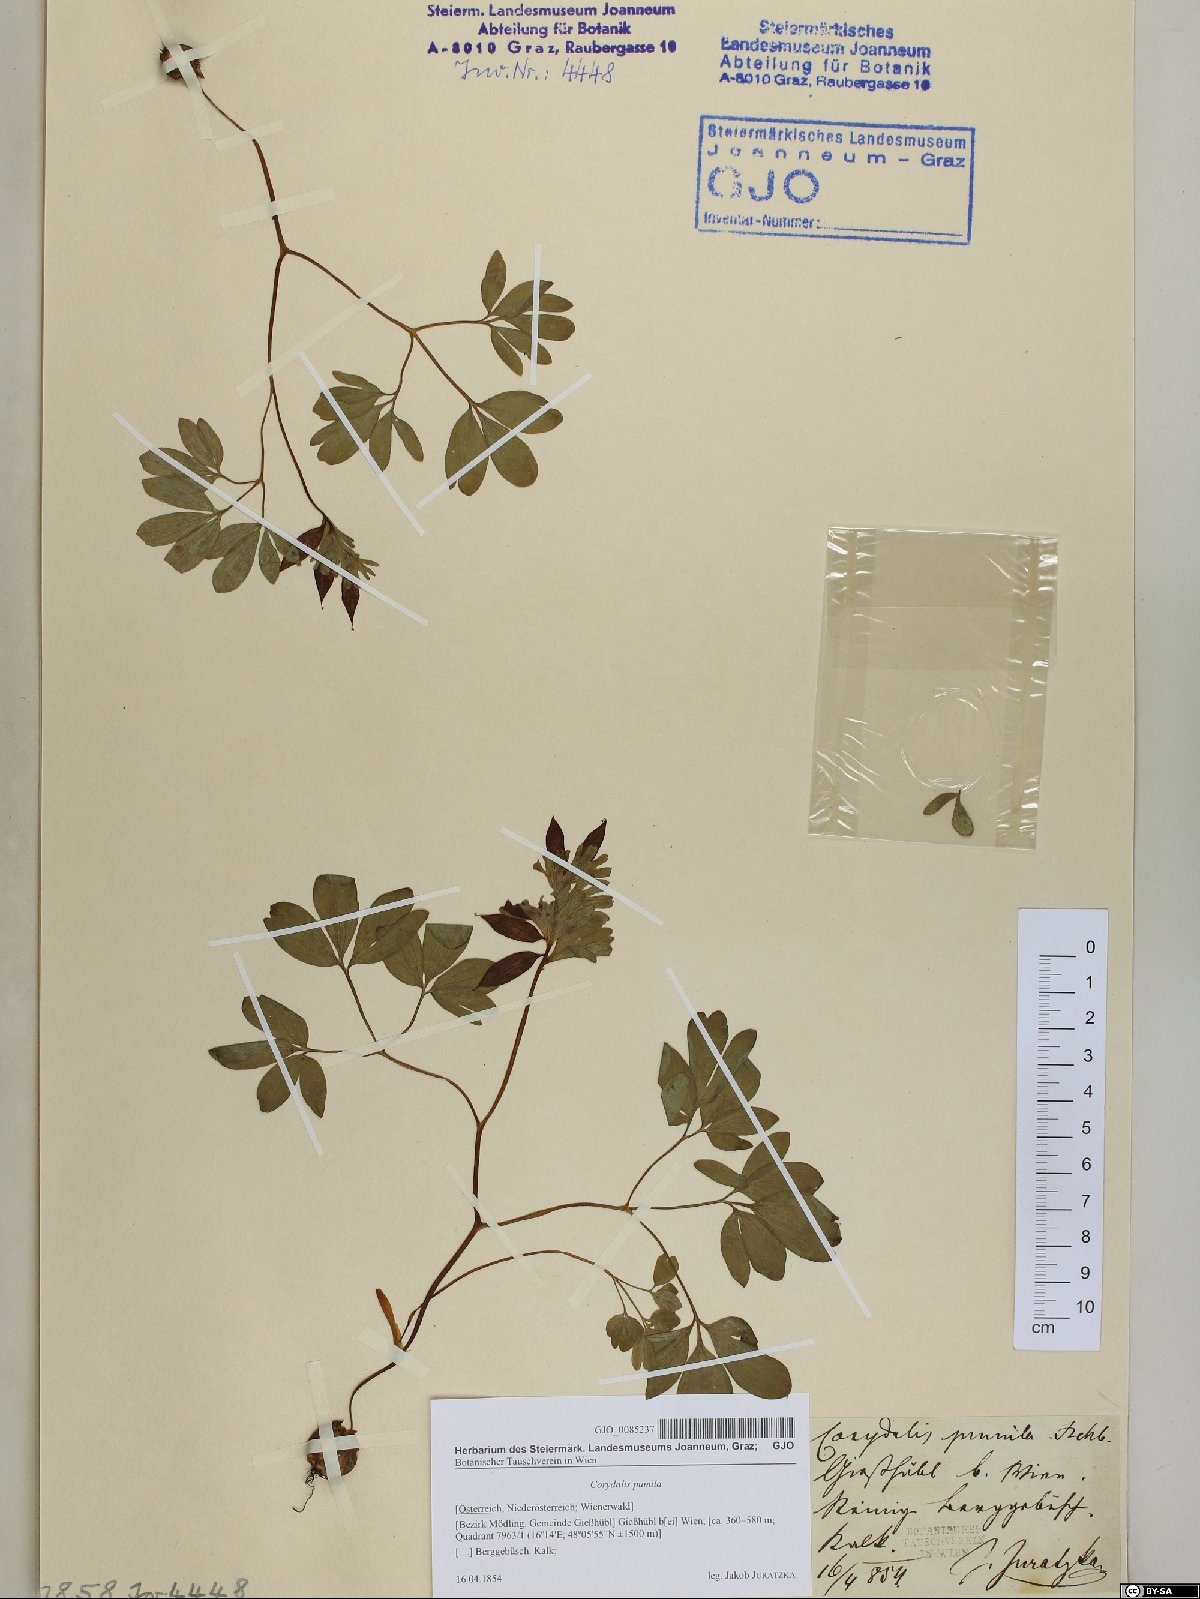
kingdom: Plantae
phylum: Tracheophyta
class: Magnoliopsida
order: Ranunculales
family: Papaveraceae
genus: Corydalis
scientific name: Corydalis pumila
